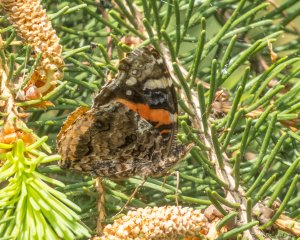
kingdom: Animalia
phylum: Arthropoda
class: Insecta
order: Lepidoptera
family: Nymphalidae
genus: Vanessa
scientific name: Vanessa atalanta
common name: Red Admiral
